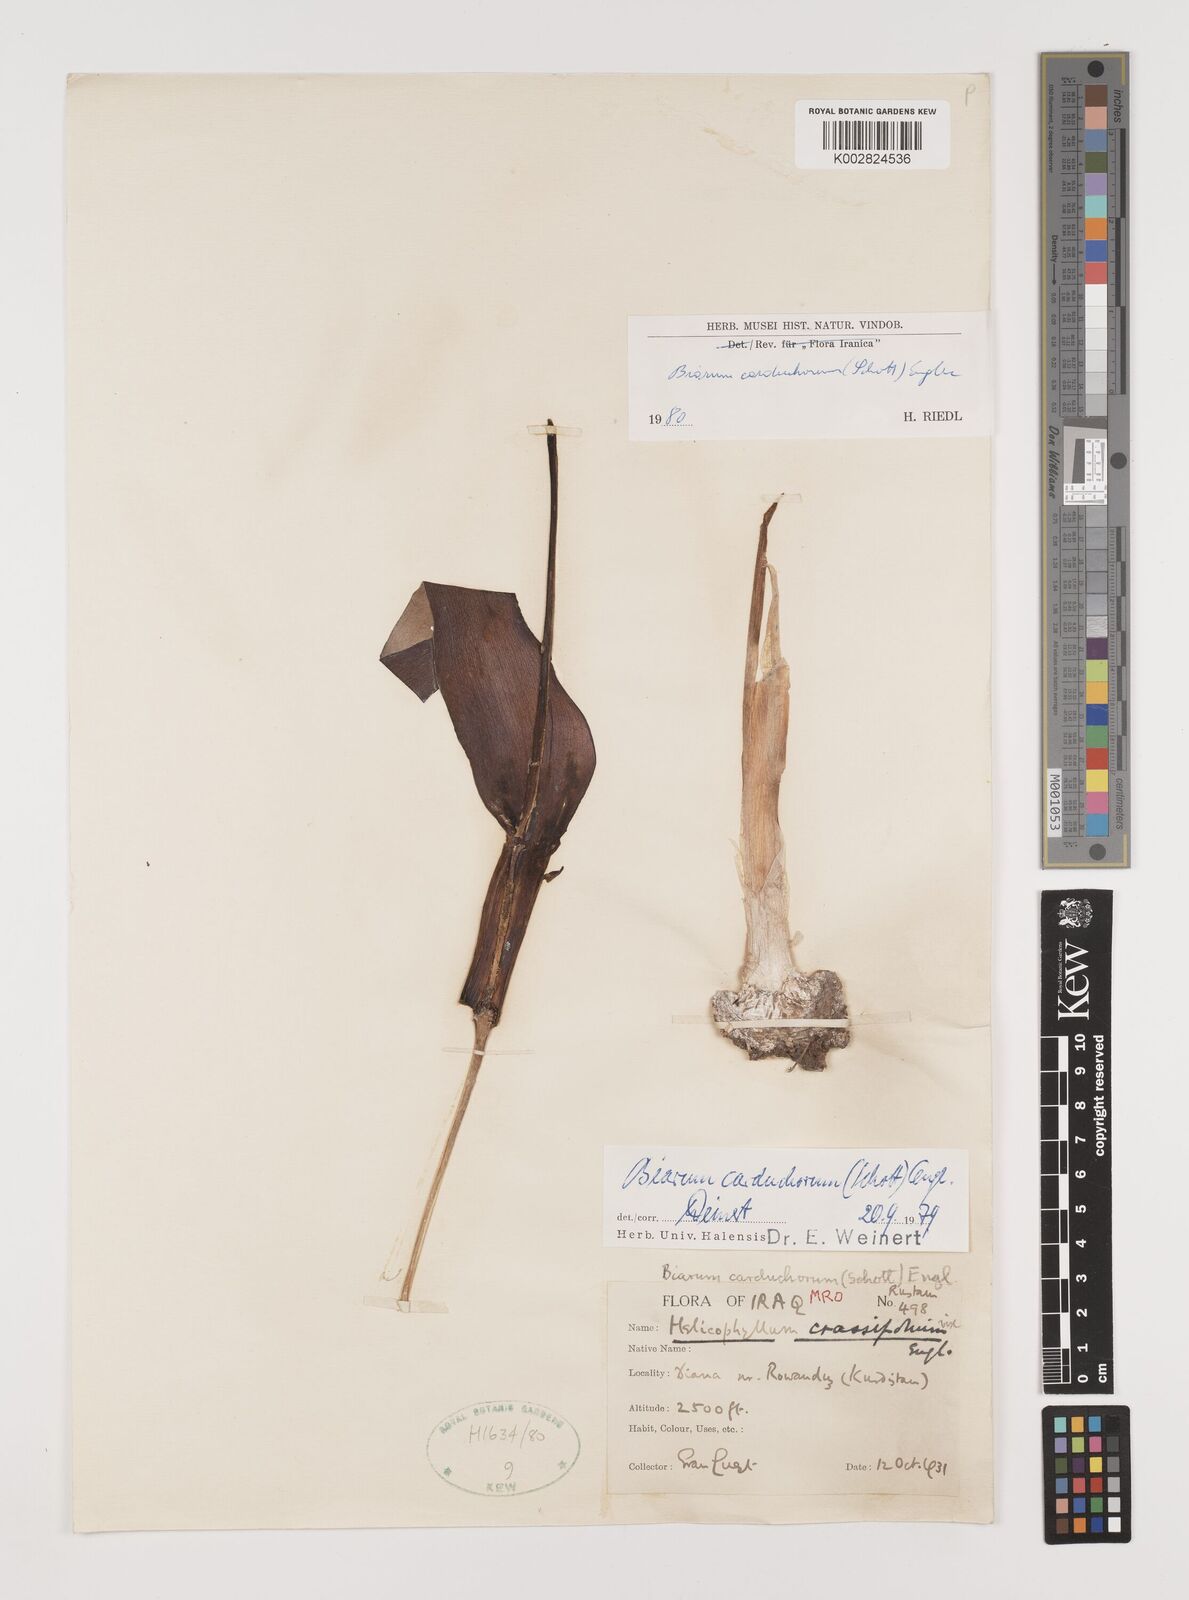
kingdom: Plantae
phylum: Tracheophyta
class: Liliopsida
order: Alismatales
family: Araceae
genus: Biarum
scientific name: Biarum carduchorum
